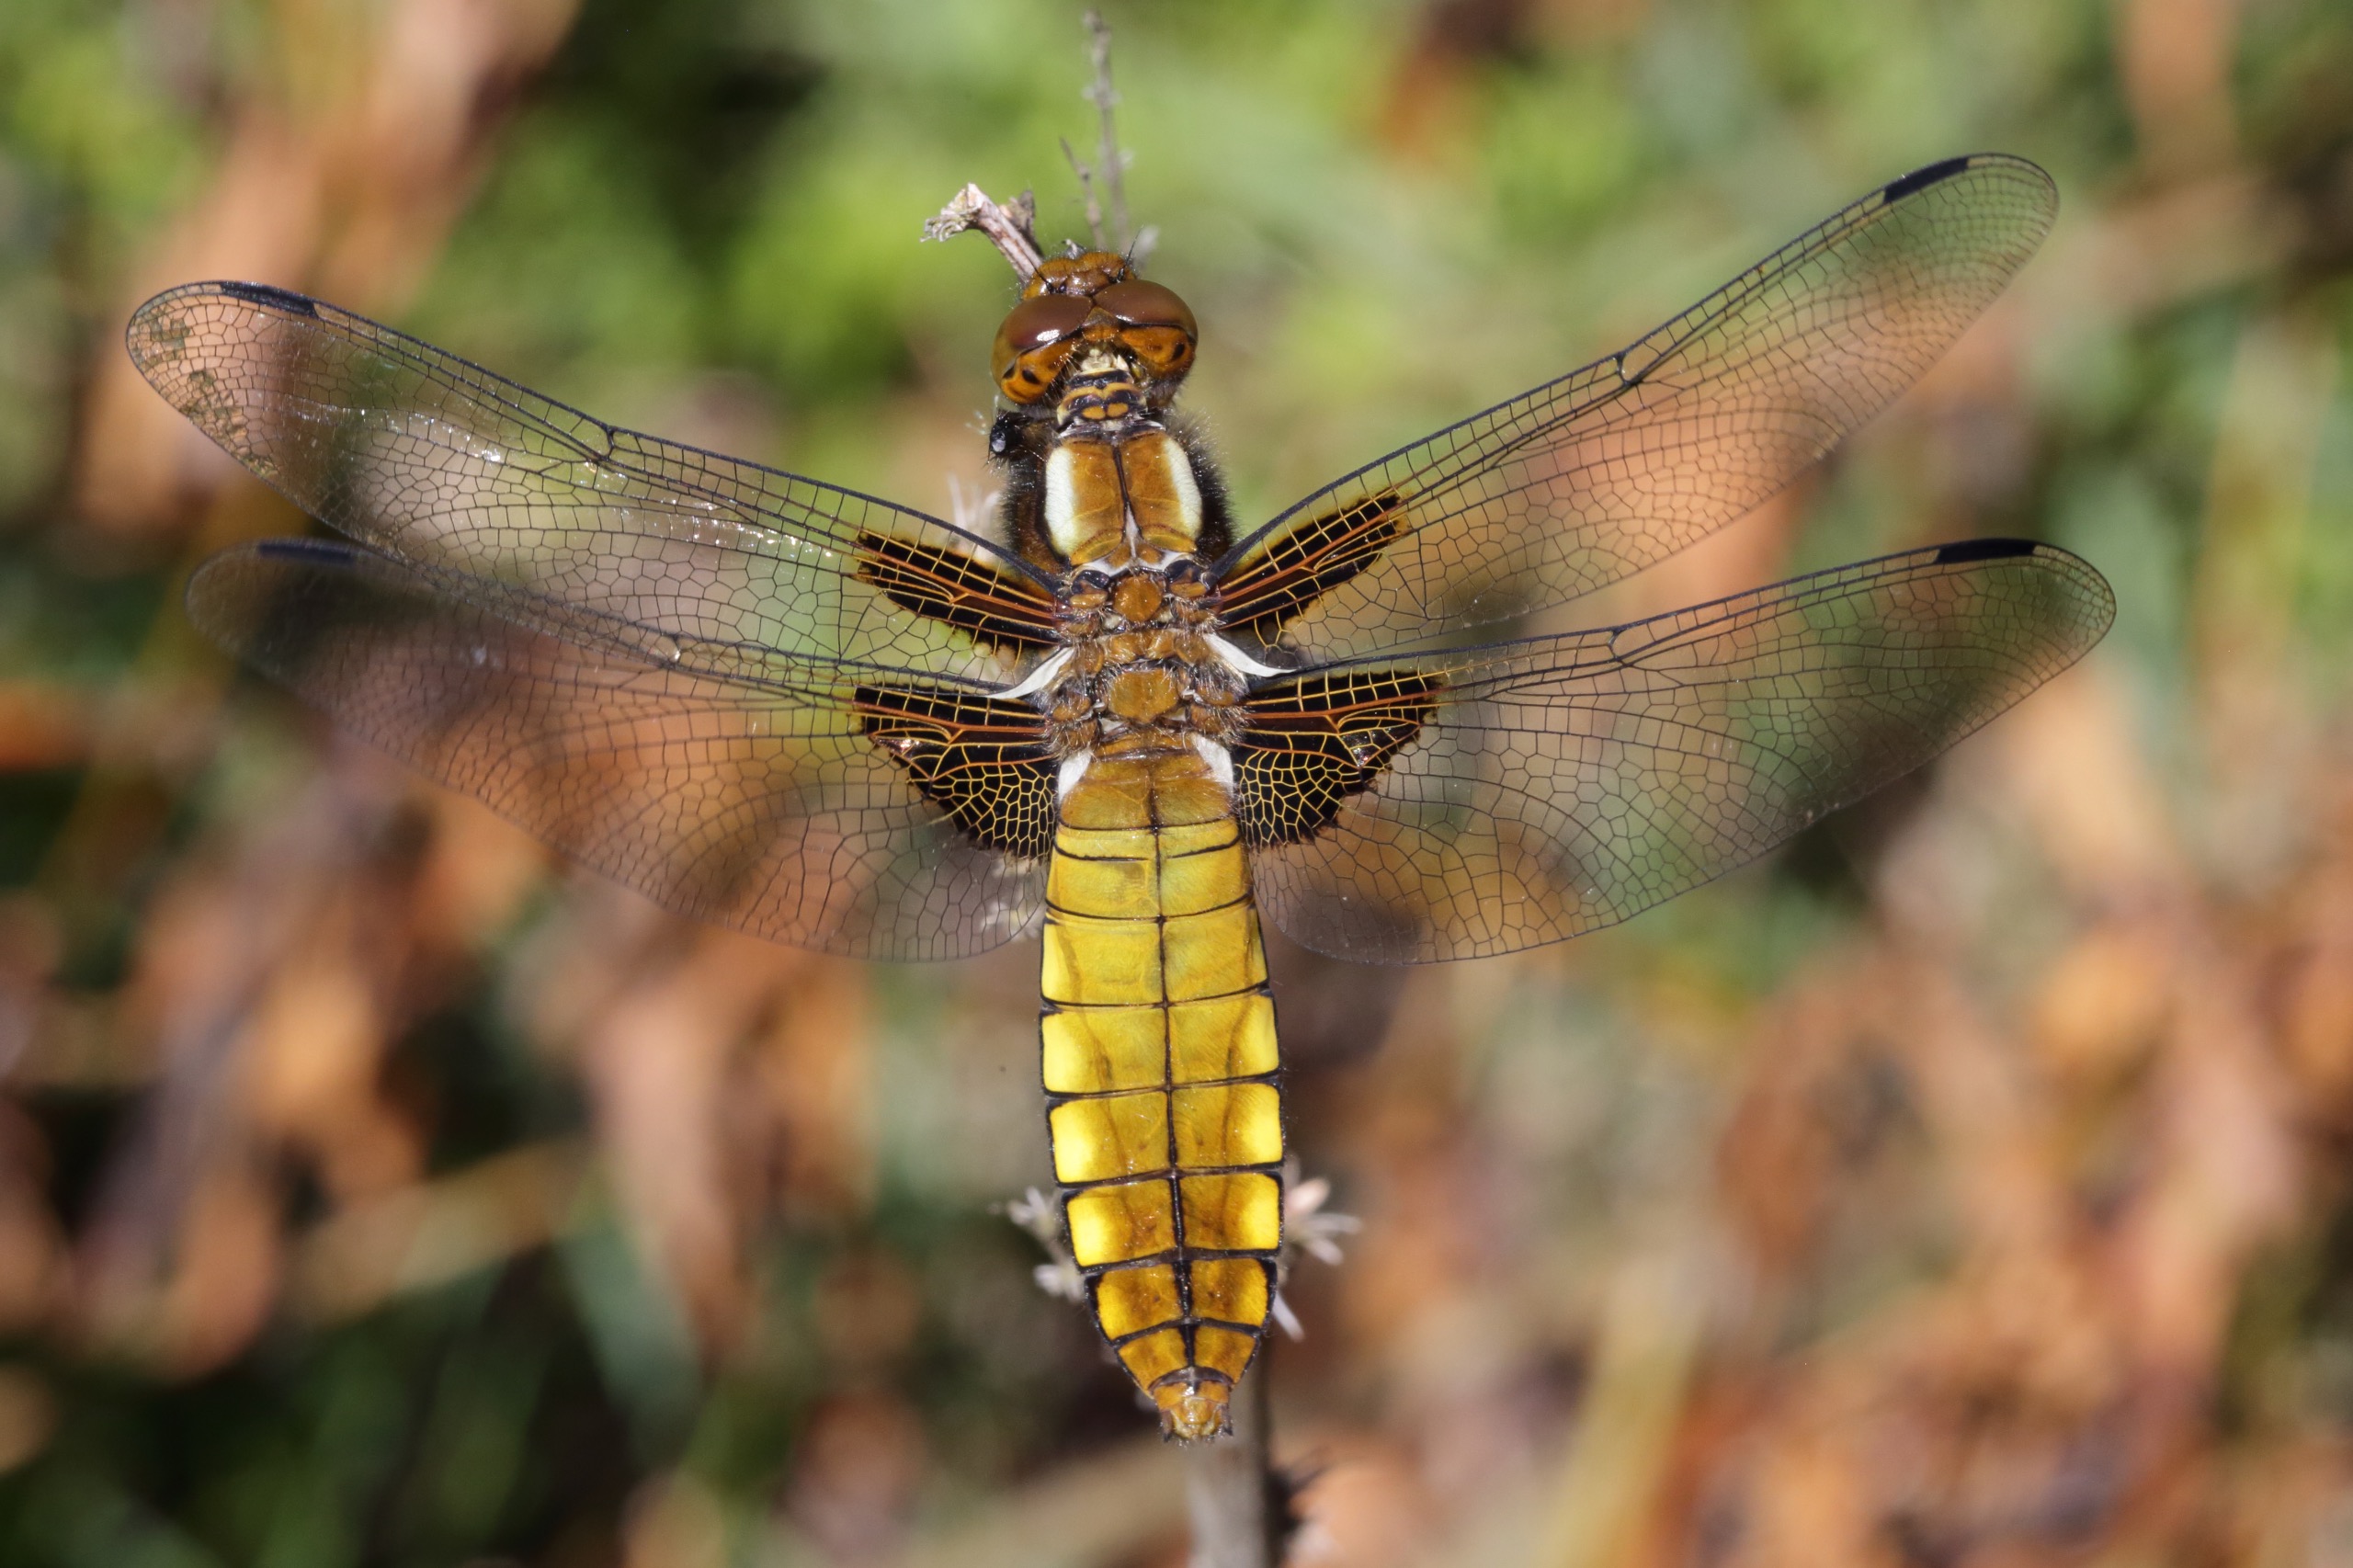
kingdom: Animalia
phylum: Arthropoda
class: Insecta
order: Odonata
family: Libellulidae
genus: Libellula
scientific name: Libellula depressa
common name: Blå libel
